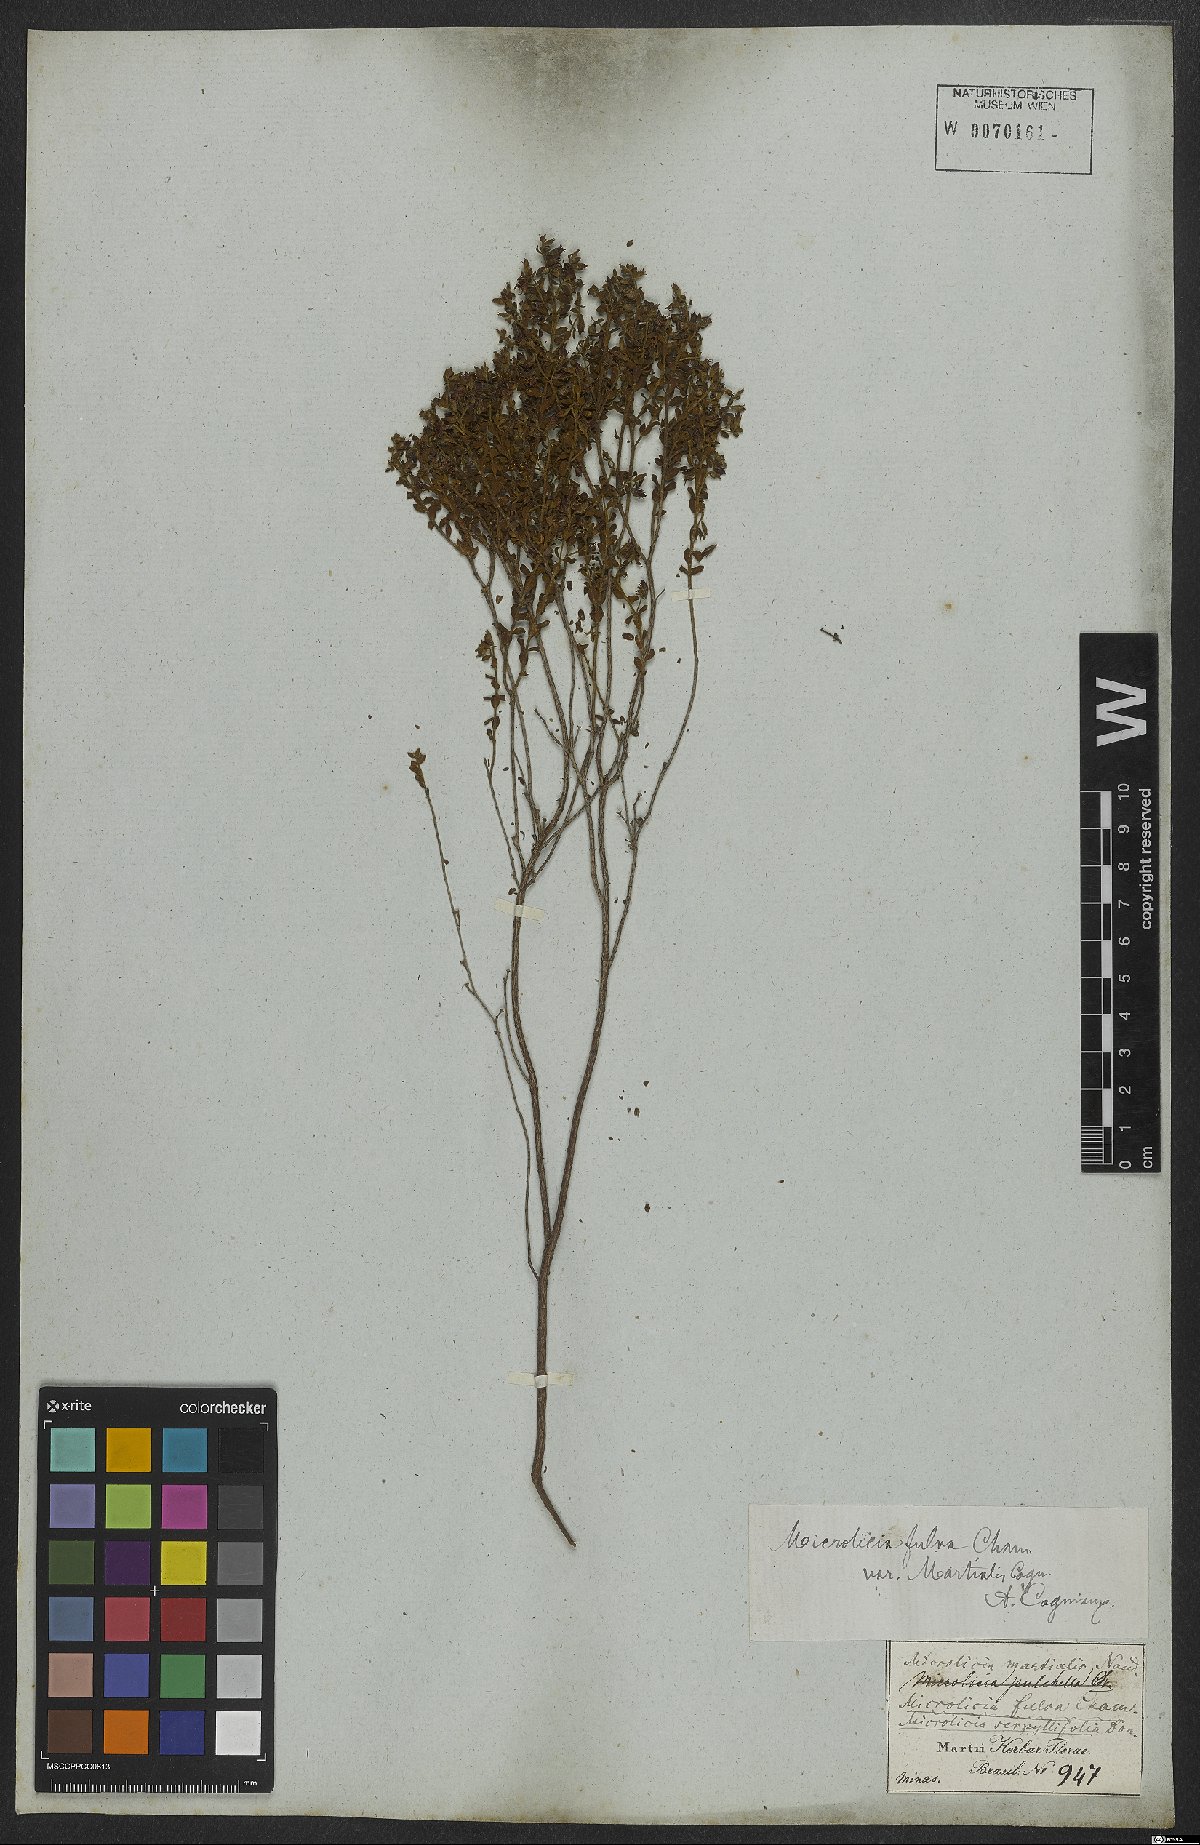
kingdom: Plantae
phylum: Tracheophyta
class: Magnoliopsida
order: Myrtales
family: Melastomataceae
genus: Microlicia
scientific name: Microlicia fulva
